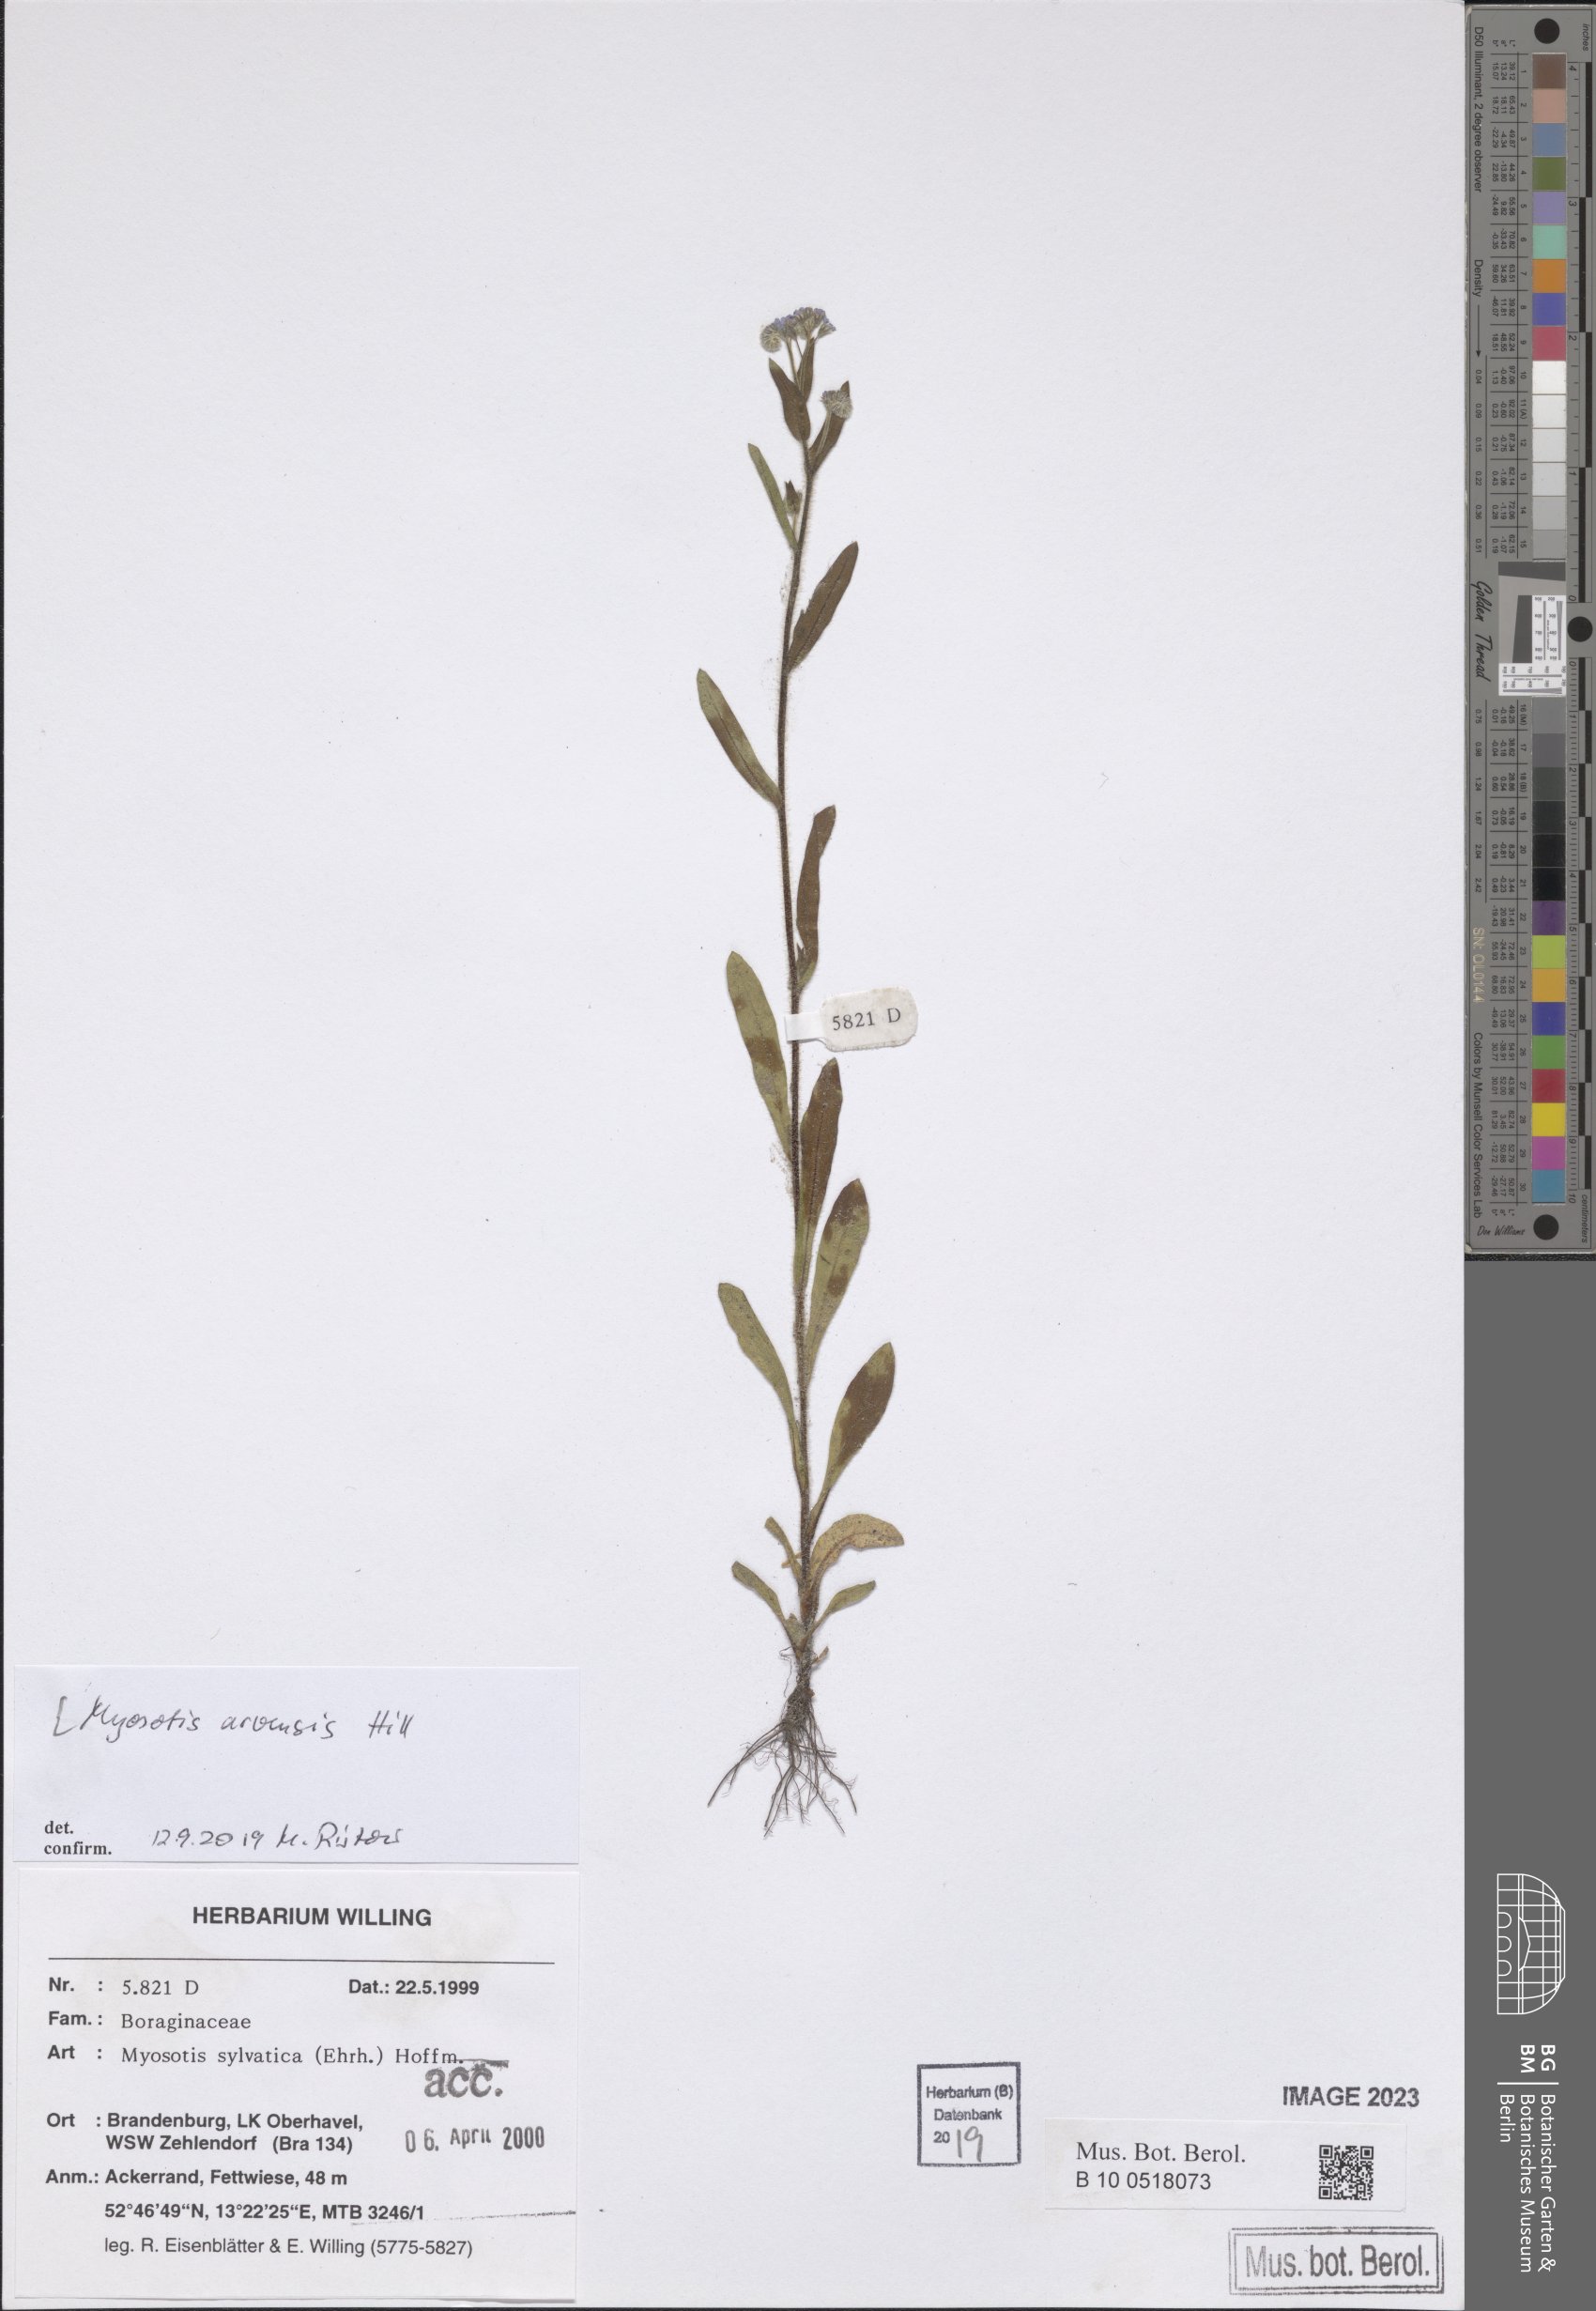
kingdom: Plantae
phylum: Tracheophyta
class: Magnoliopsida
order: Boraginales
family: Boraginaceae
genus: Myosotis
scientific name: Myosotis arvensis
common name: Field forget-me-not
